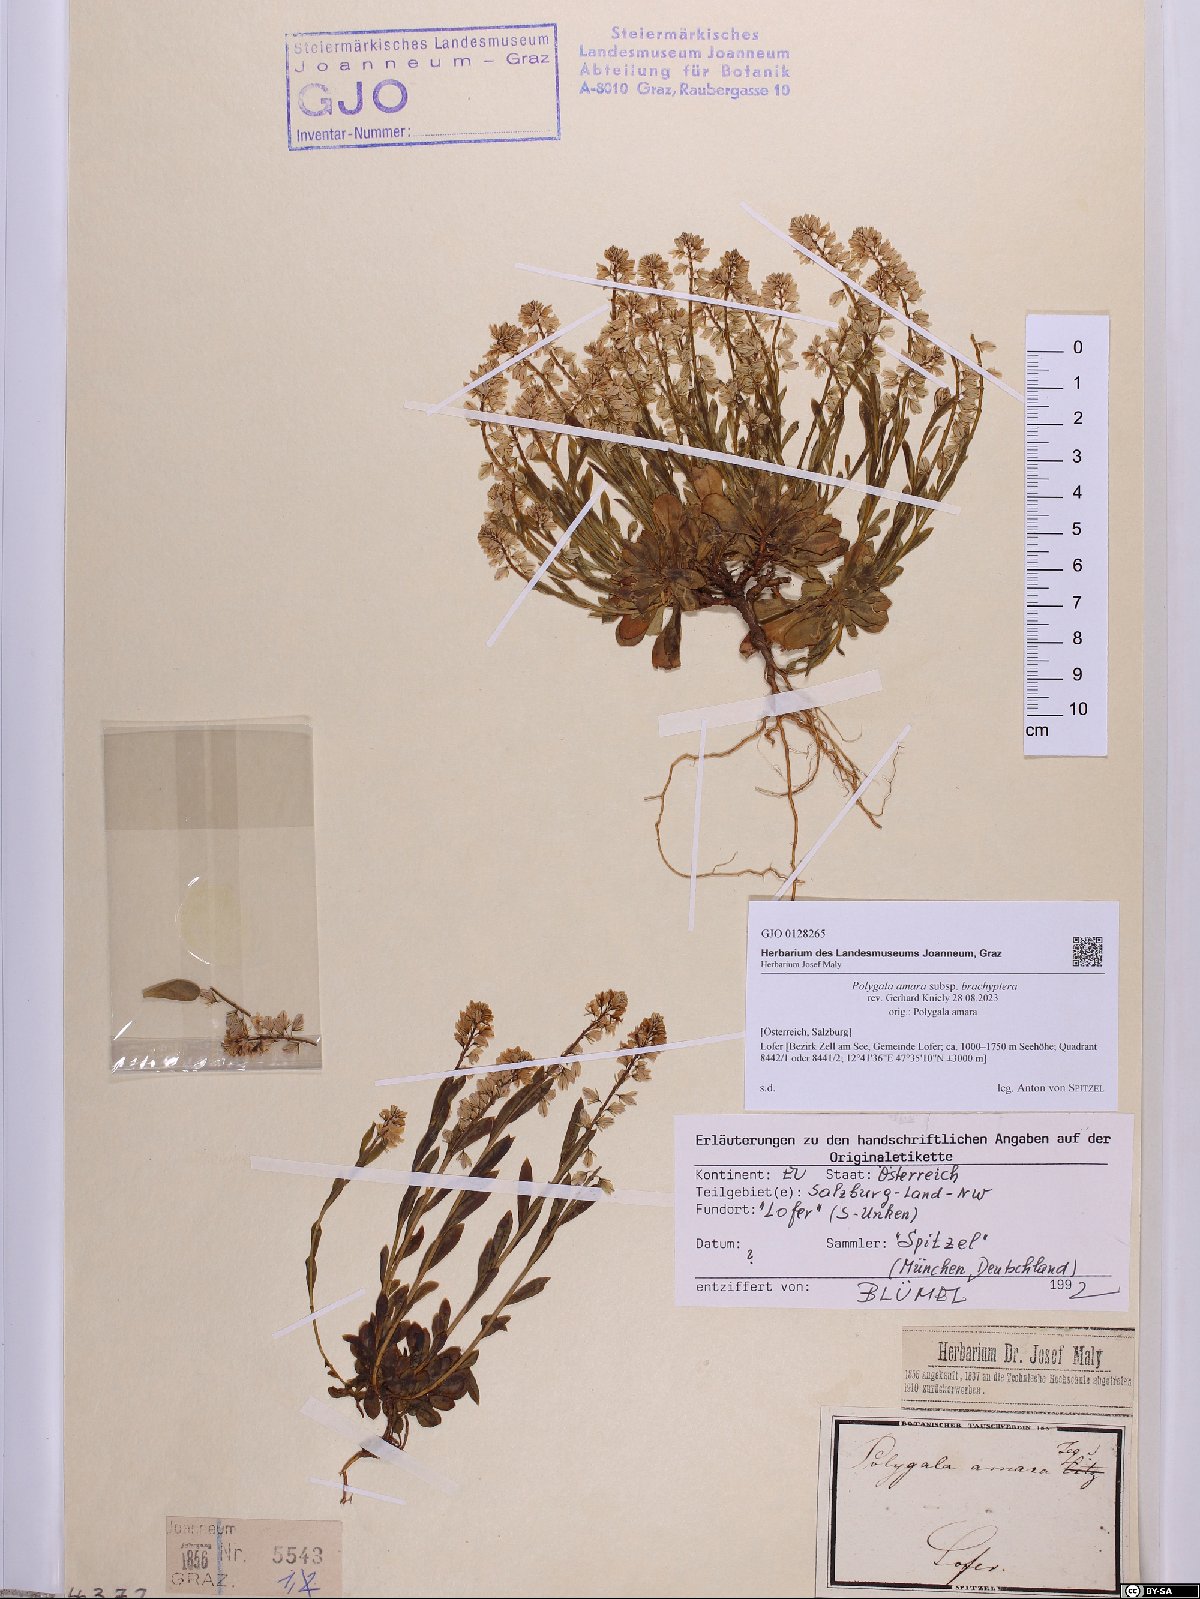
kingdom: Plantae
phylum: Tracheophyta
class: Magnoliopsida
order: Fabales
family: Polygalaceae
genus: Polygala
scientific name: Polygala amara
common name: Milkwort
